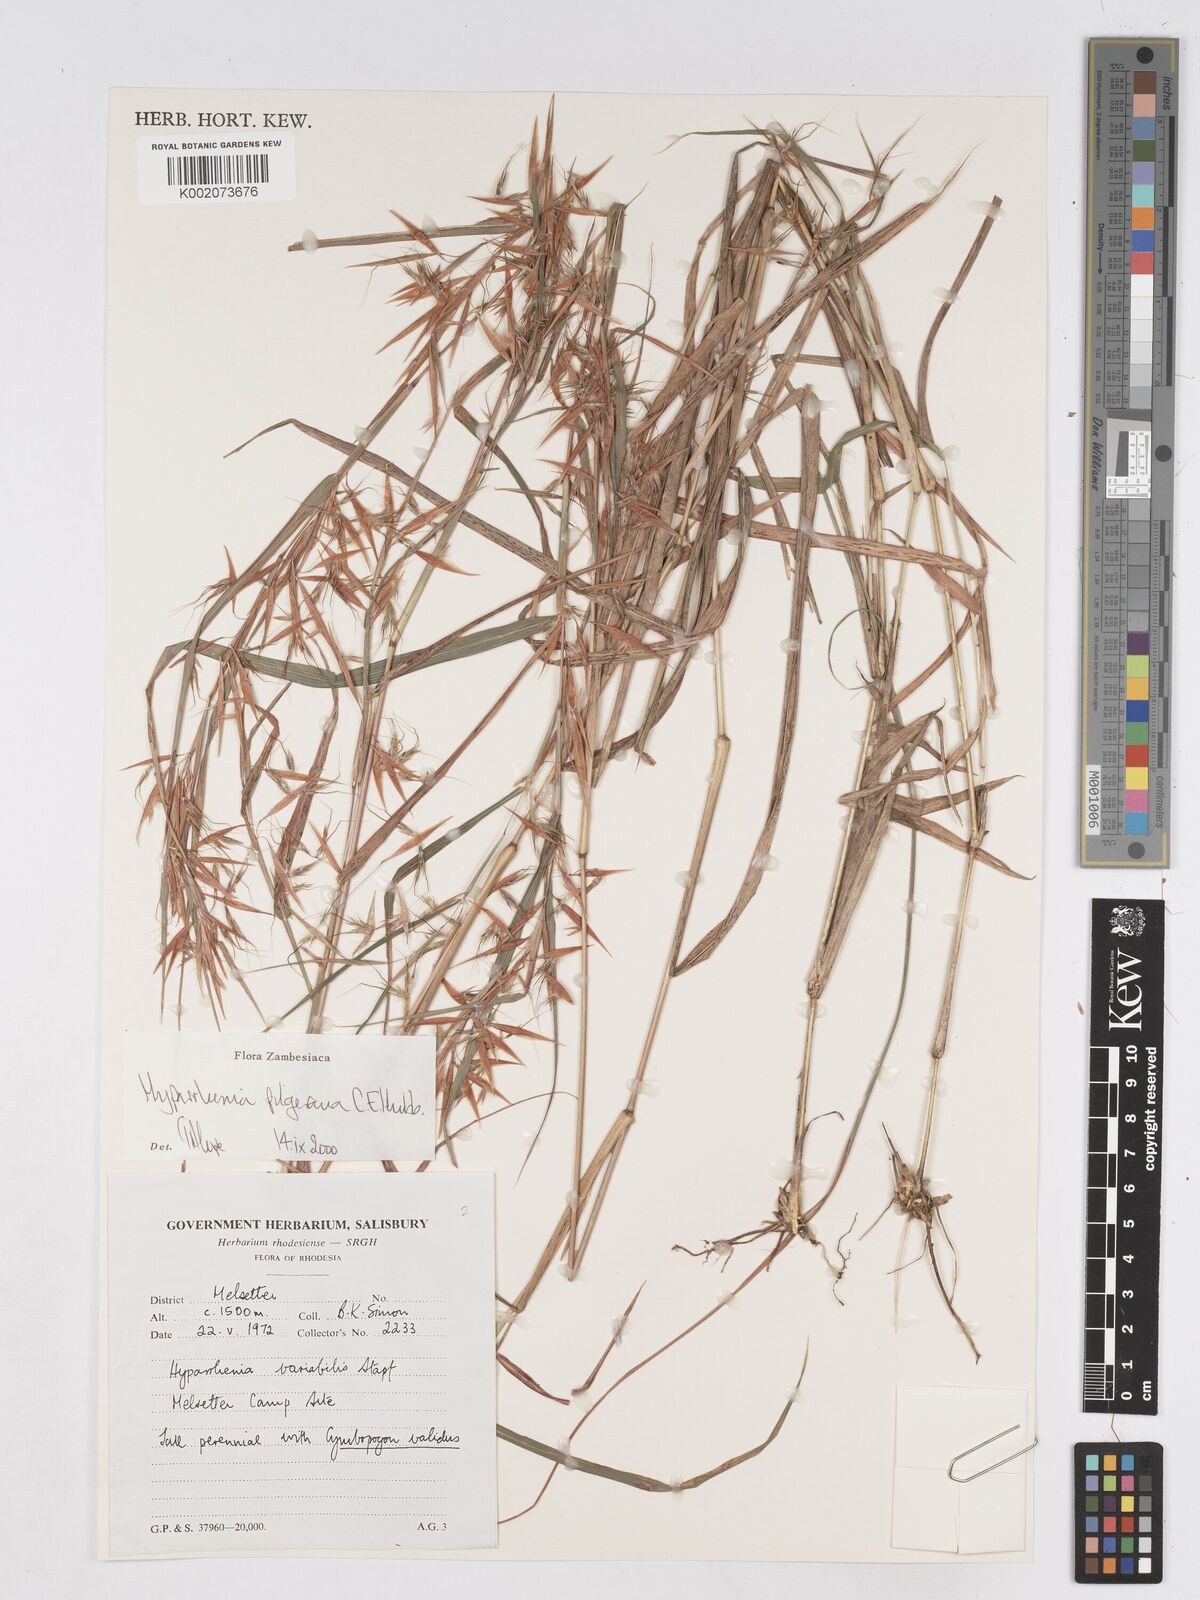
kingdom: Plantae
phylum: Tracheophyta
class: Liliopsida
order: Poales
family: Poaceae
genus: Hyparrhenia
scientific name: Hyparrhenia pilgeriana
